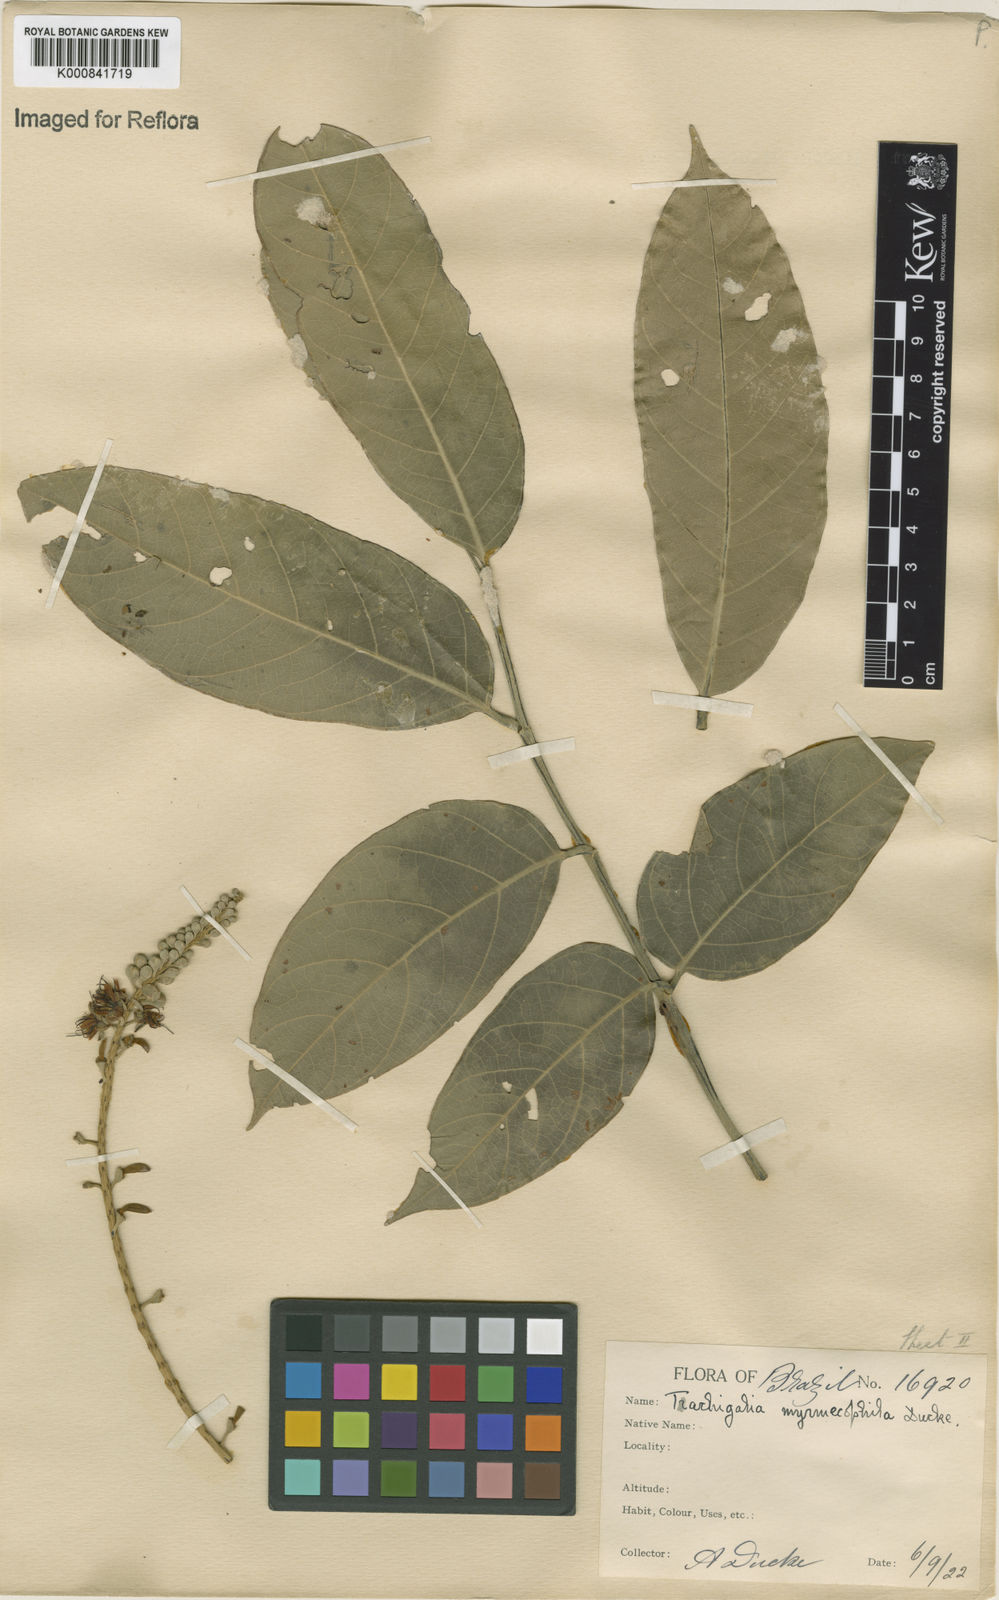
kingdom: Plantae
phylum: Tracheophyta
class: Magnoliopsida
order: Fabales
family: Fabaceae
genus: Tachigali
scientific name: Tachigali glauca
